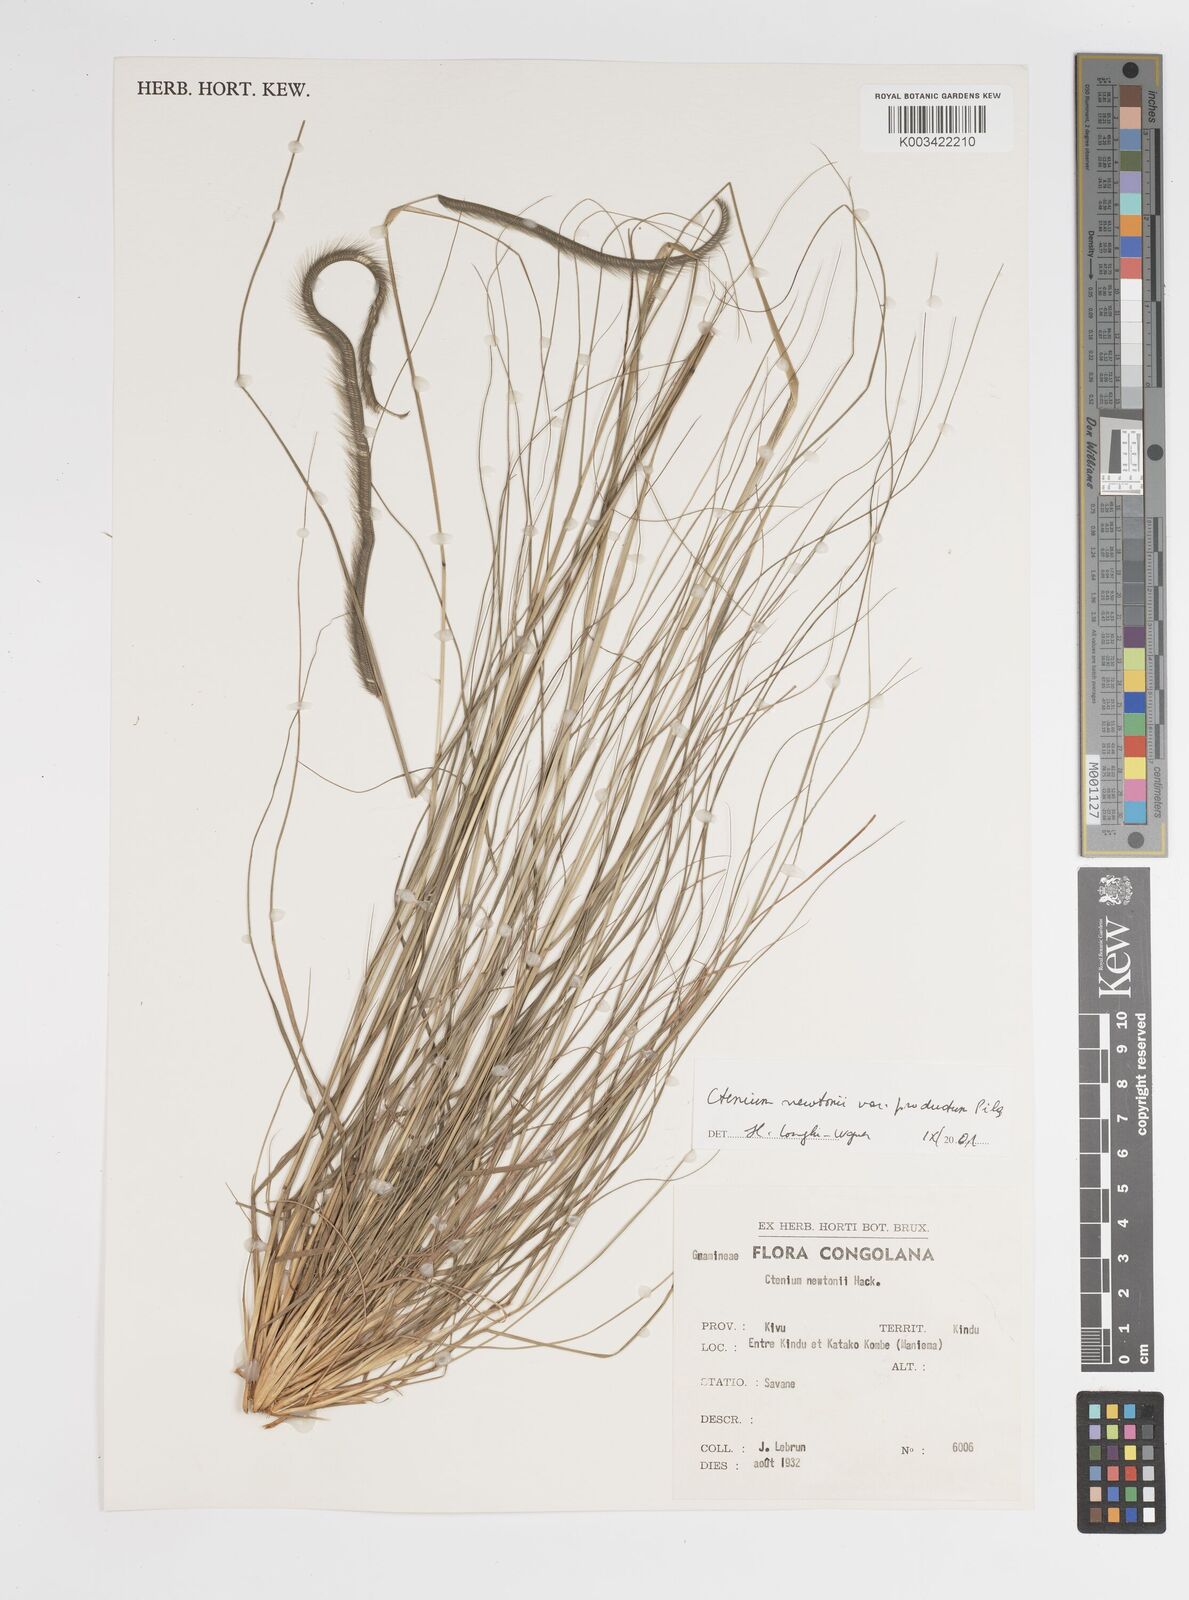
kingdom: Plantae
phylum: Tracheophyta
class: Liliopsida
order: Poales
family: Poaceae
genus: Ctenium
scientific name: Ctenium newtonii
